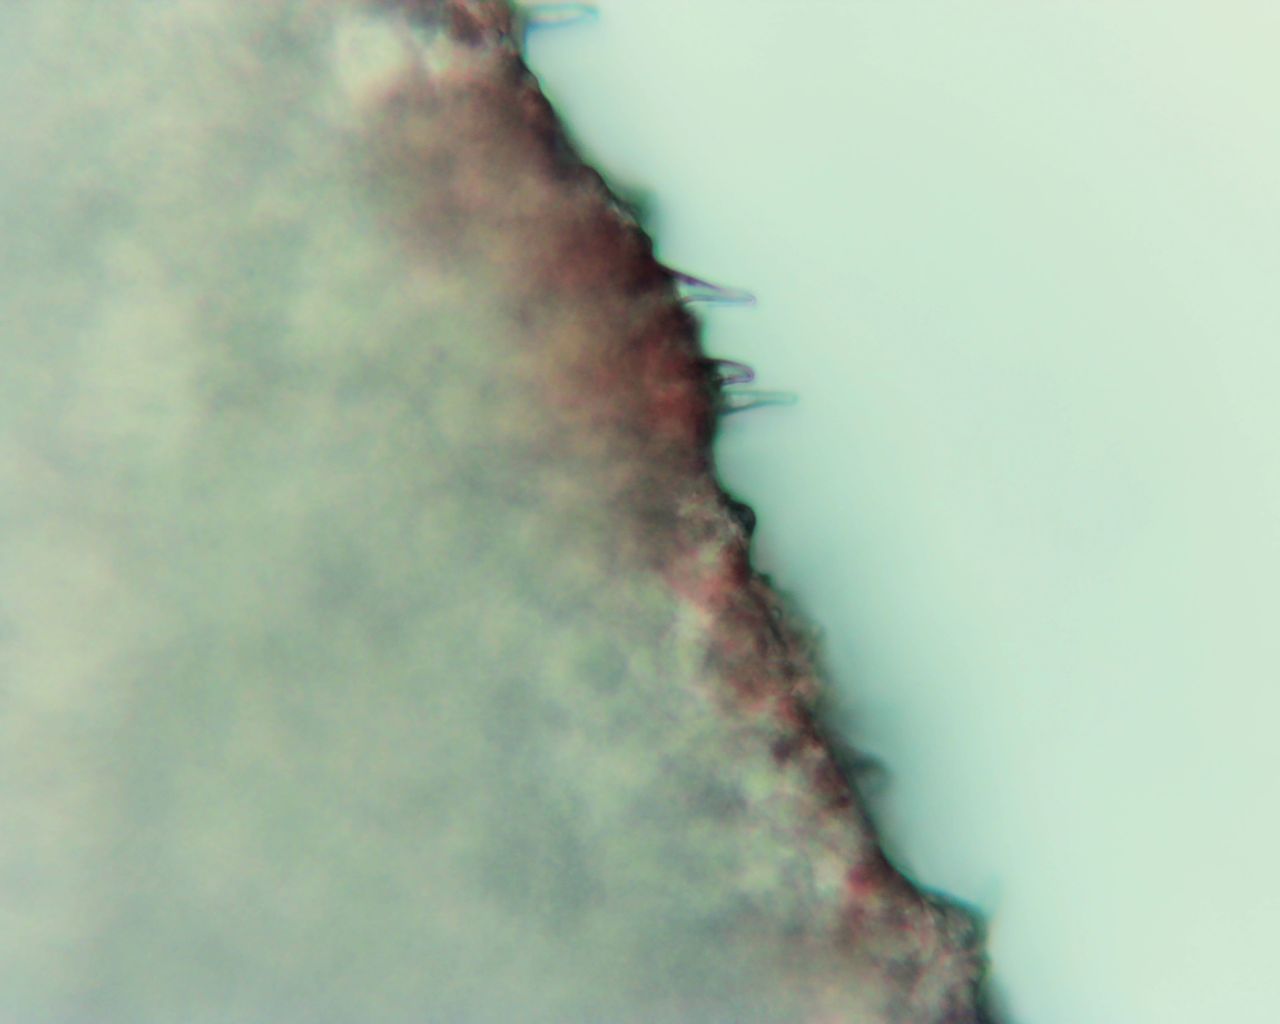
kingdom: Fungi
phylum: Basidiomycota
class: Agaricomycetes
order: Agaricales
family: Mycenaceae
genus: Mycena
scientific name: Mycena sanguinolenta
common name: rødmælket huesvamp
